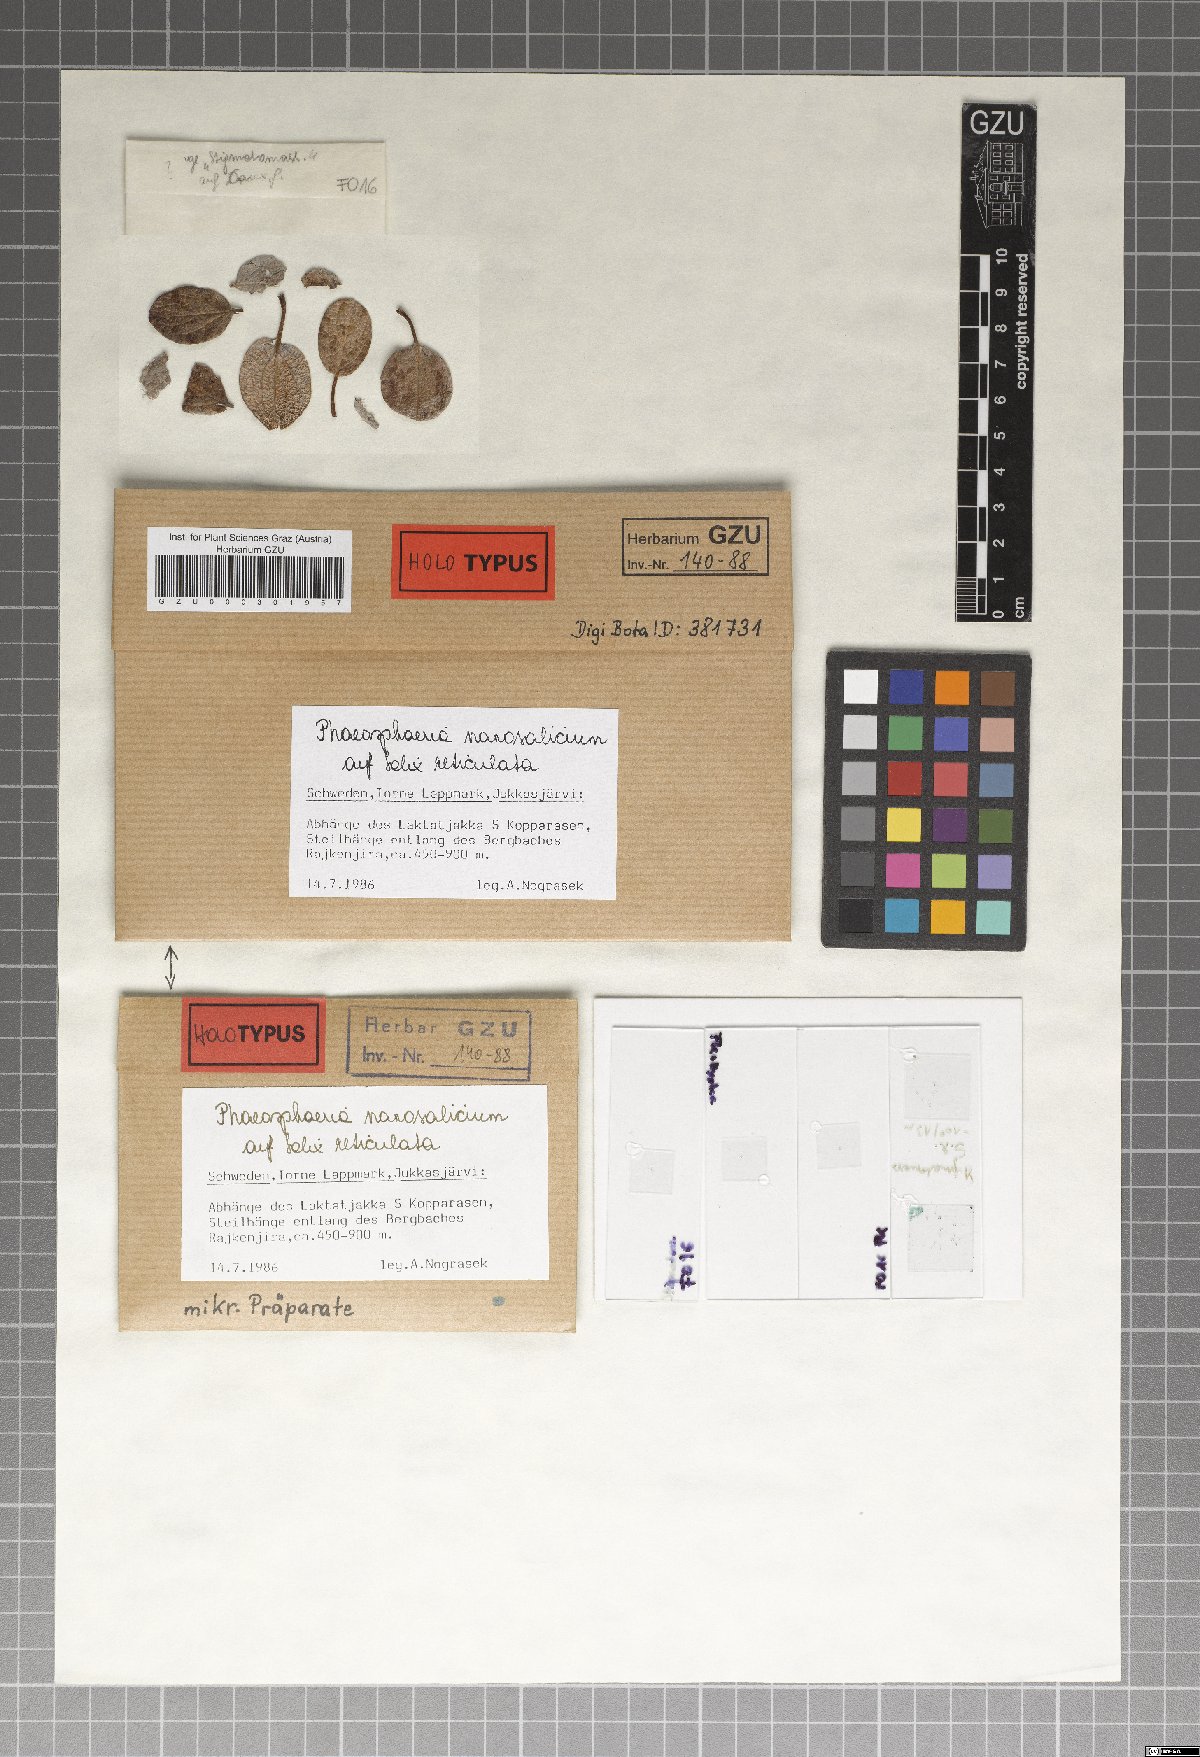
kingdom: Fungi
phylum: Ascomycota
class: Dothideomycetes
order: Pleosporales
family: Phaeosphaeriaceae
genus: Phaeosphaeria
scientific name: Phaeosphaeria nanosalicium
